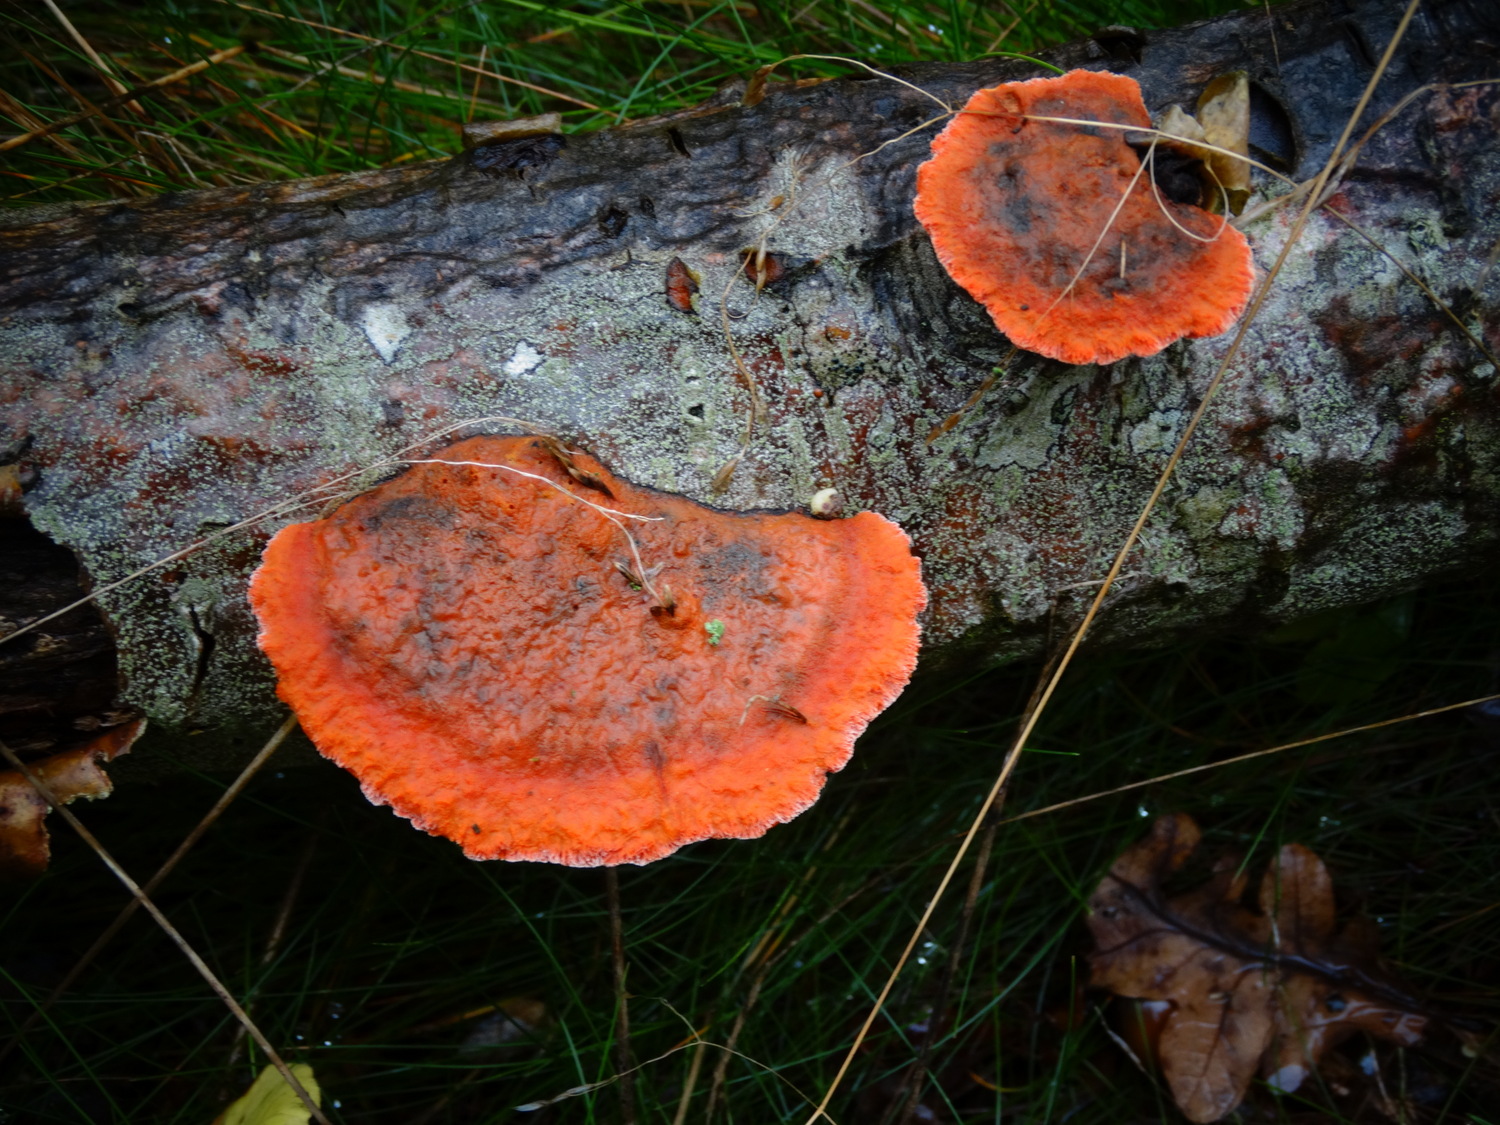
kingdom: Fungi
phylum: Basidiomycota
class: Agaricomycetes
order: Polyporales
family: Polyporaceae
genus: Trametes
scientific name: Trametes cinnabarina
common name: cinnoberporesvamp
